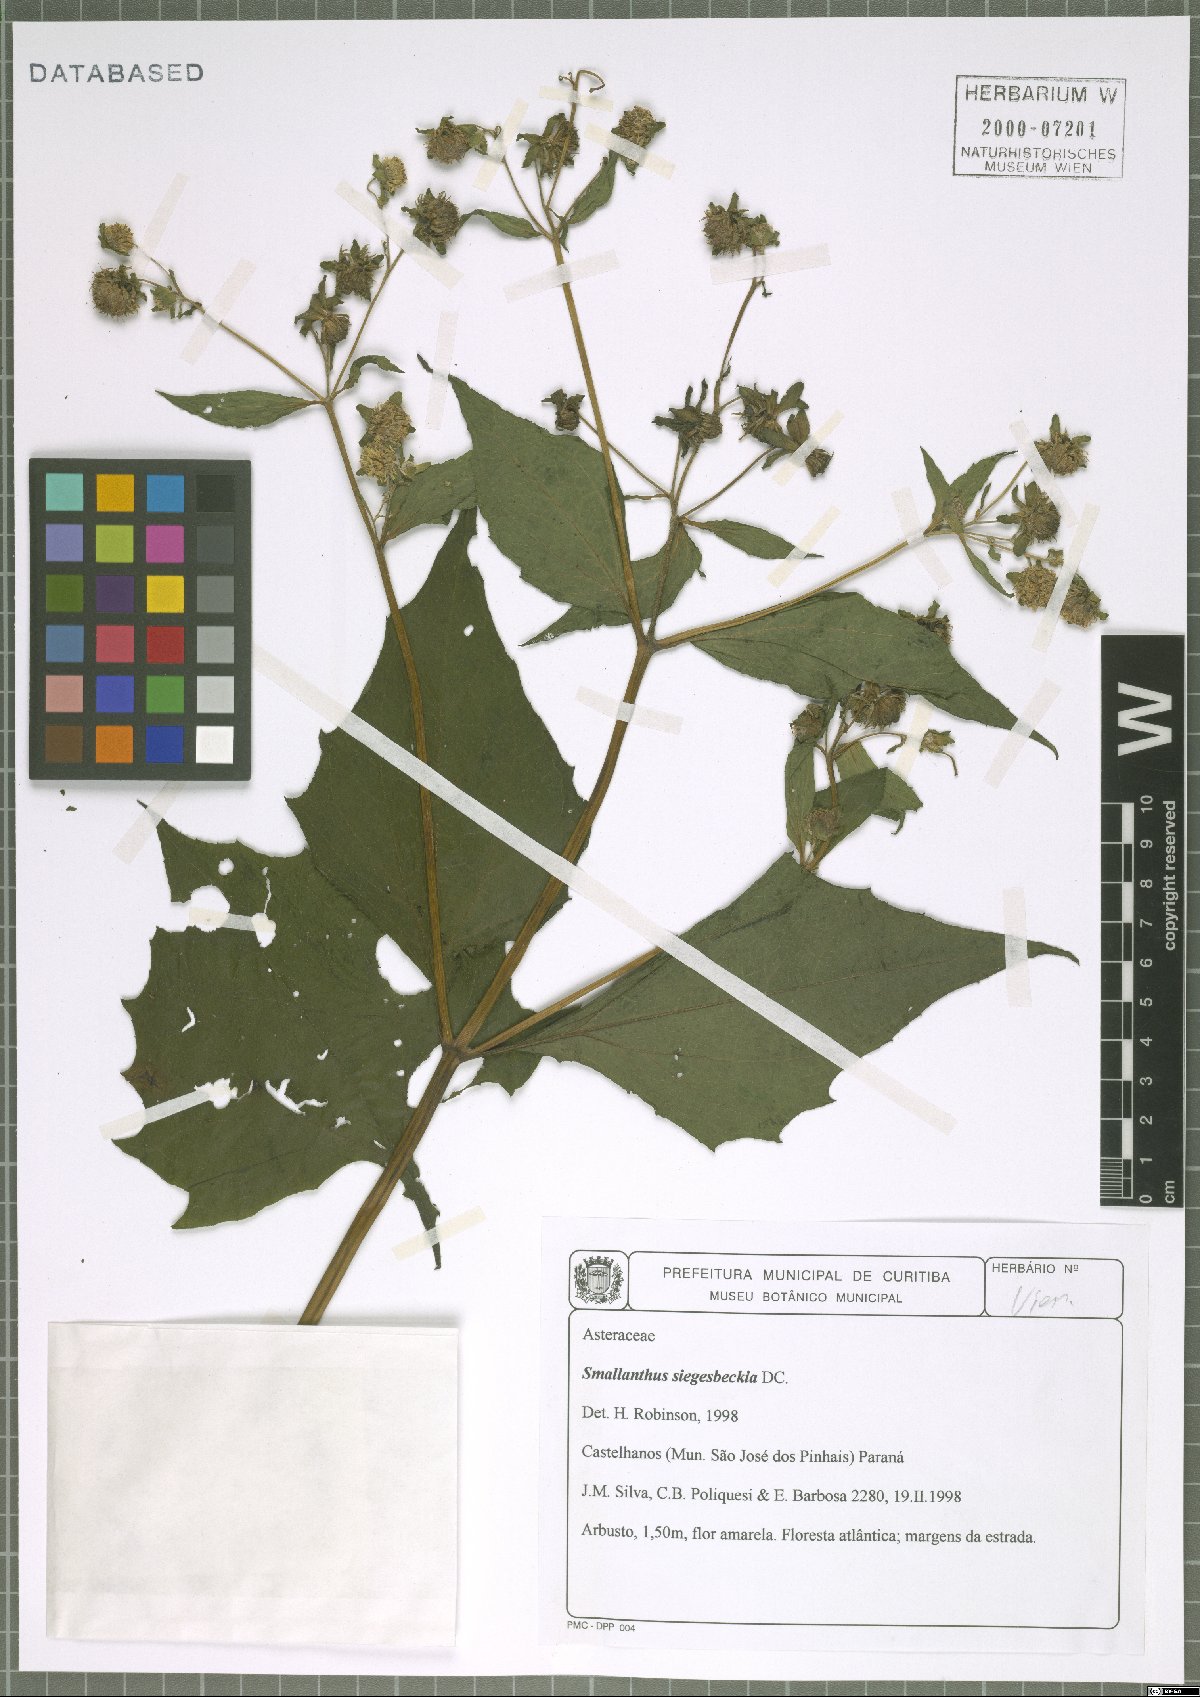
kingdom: Plantae
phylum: Tracheophyta
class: Magnoliopsida
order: Asterales
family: Asteraceae
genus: Smallanthus
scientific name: Smallanthus siegesbeckius
